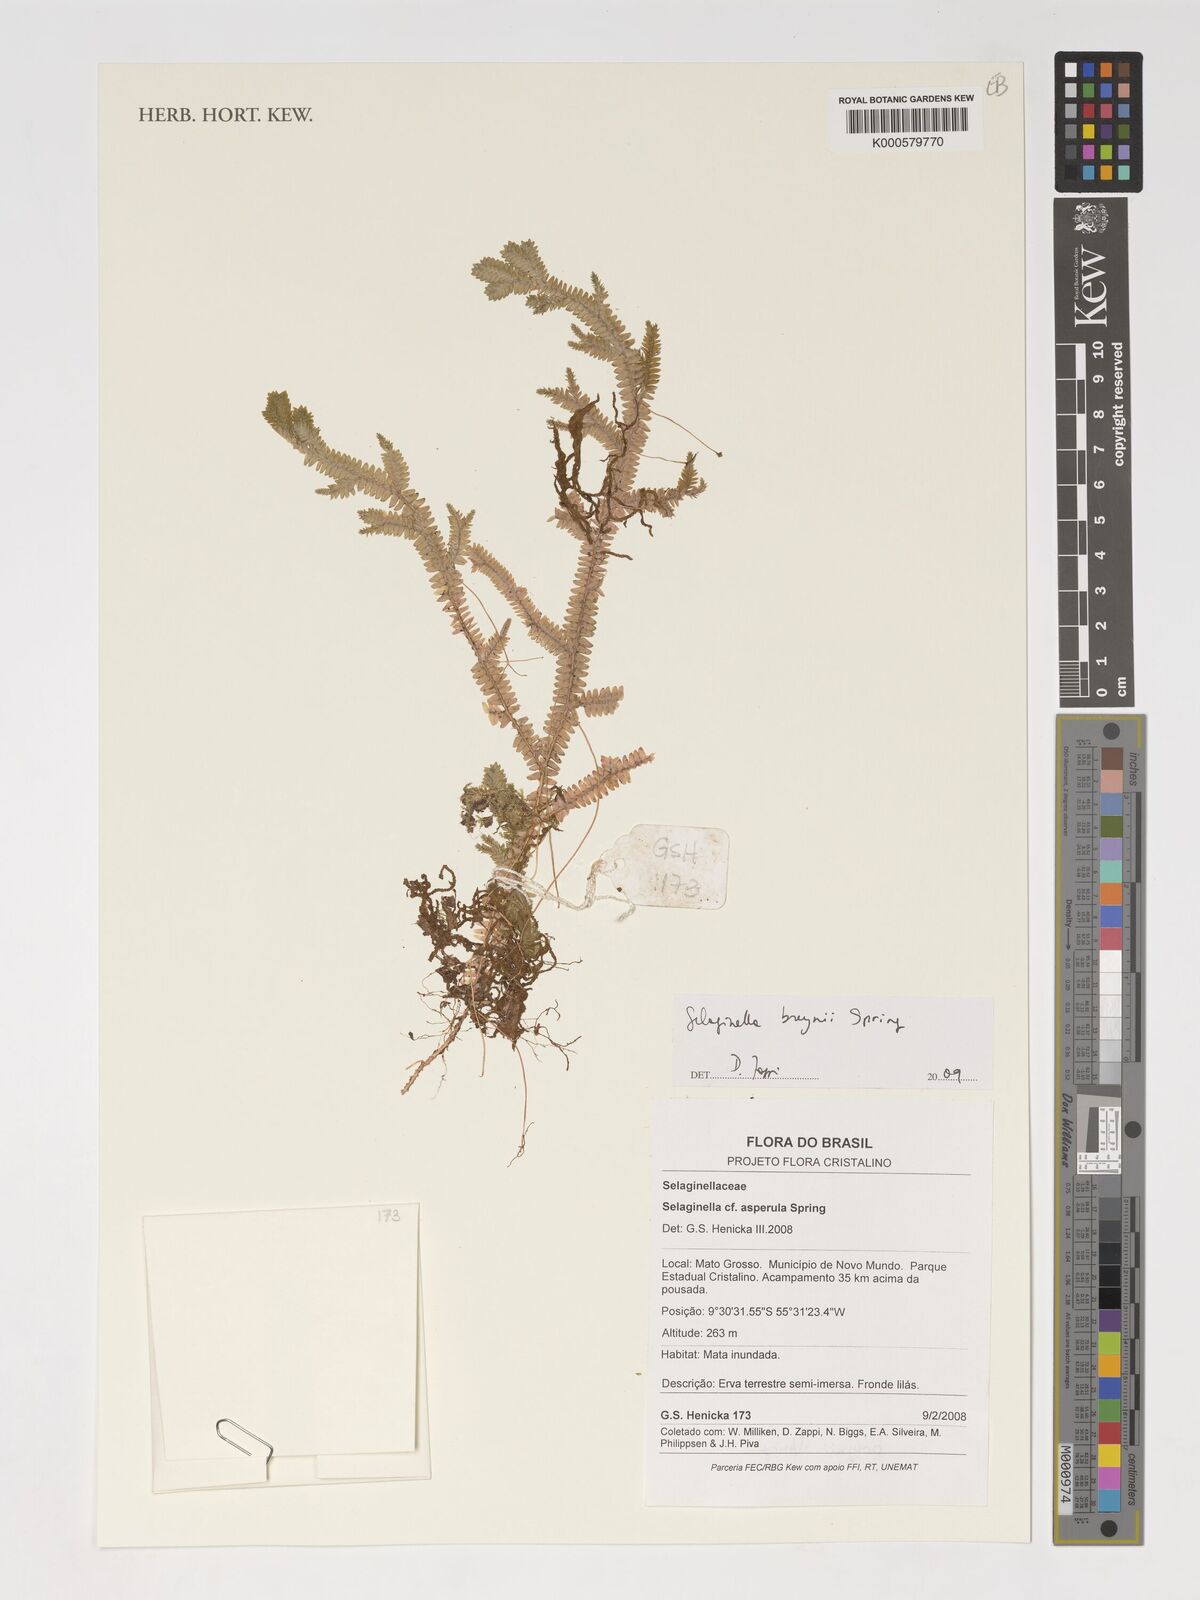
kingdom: Plantae
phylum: Tracheophyta
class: Lycopodiopsida
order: Selaginellales
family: Selaginellaceae
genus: Selaginella
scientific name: Selaginella breynii
